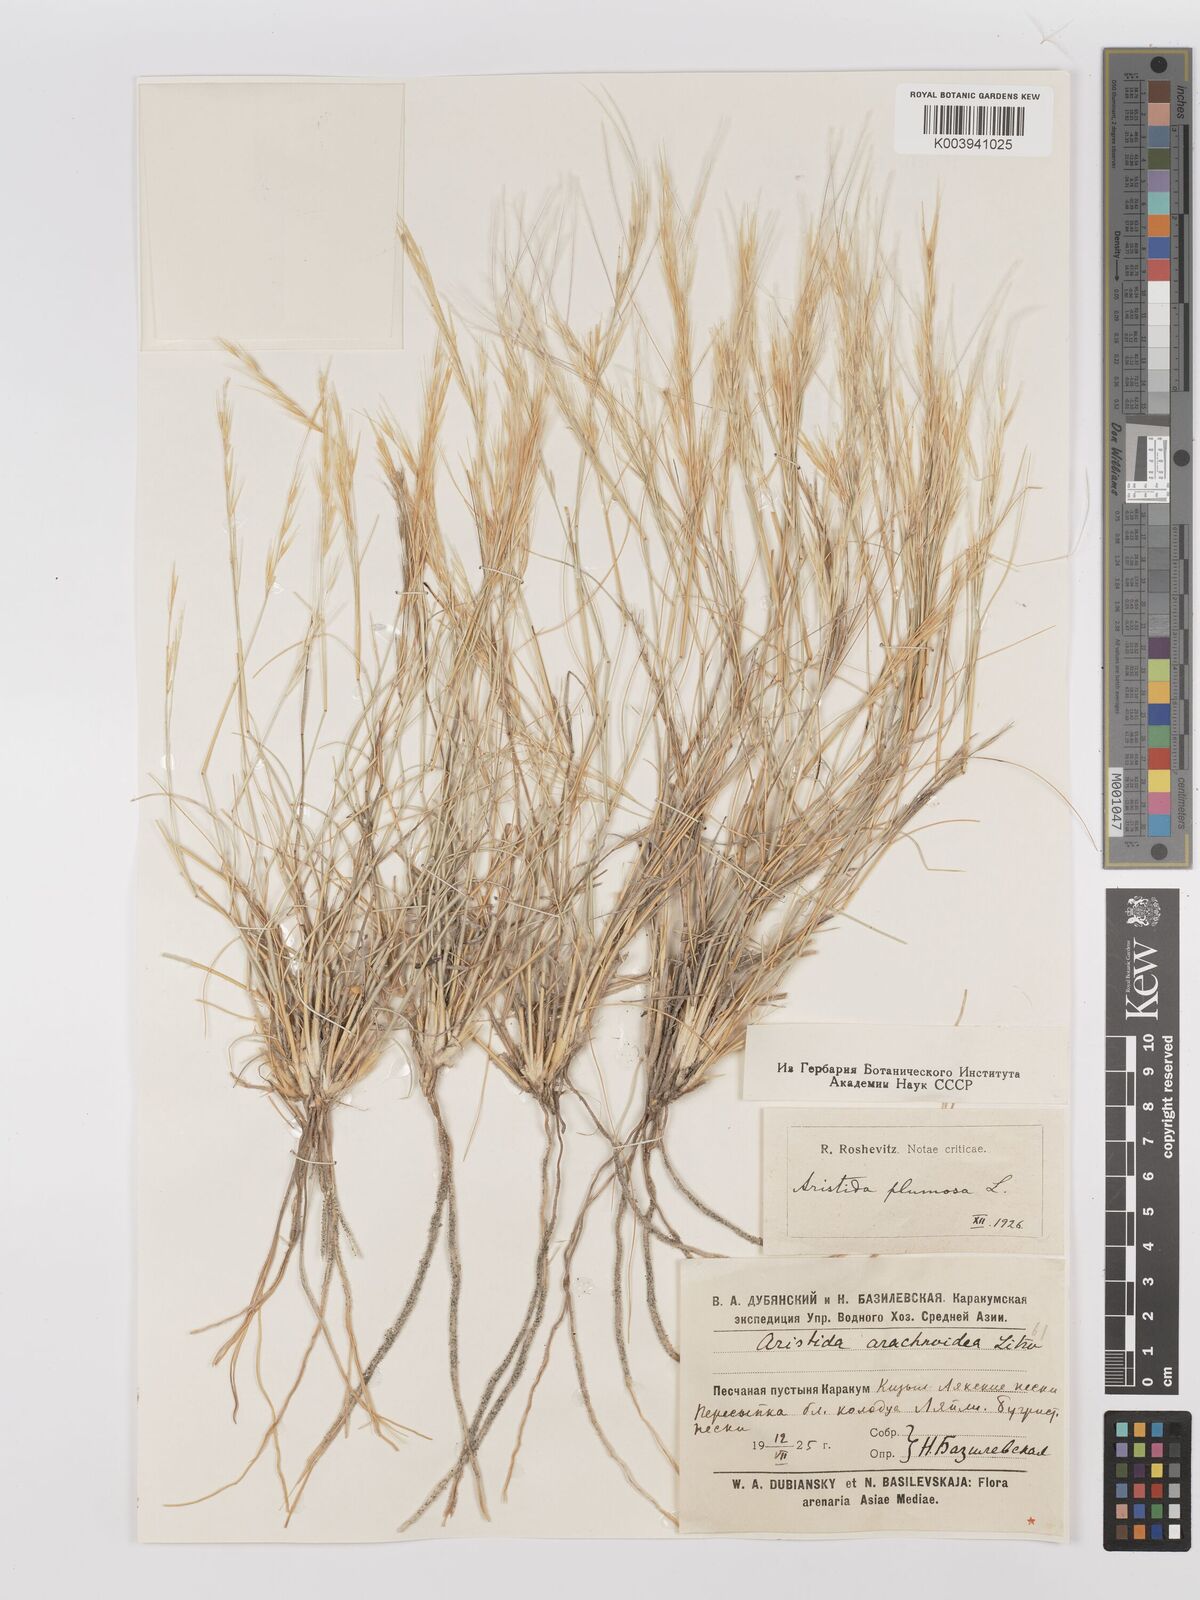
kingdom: Plantae
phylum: Tracheophyta
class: Liliopsida
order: Poales
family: Poaceae
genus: Stipagrostis
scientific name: Stipagrostis plumosa
